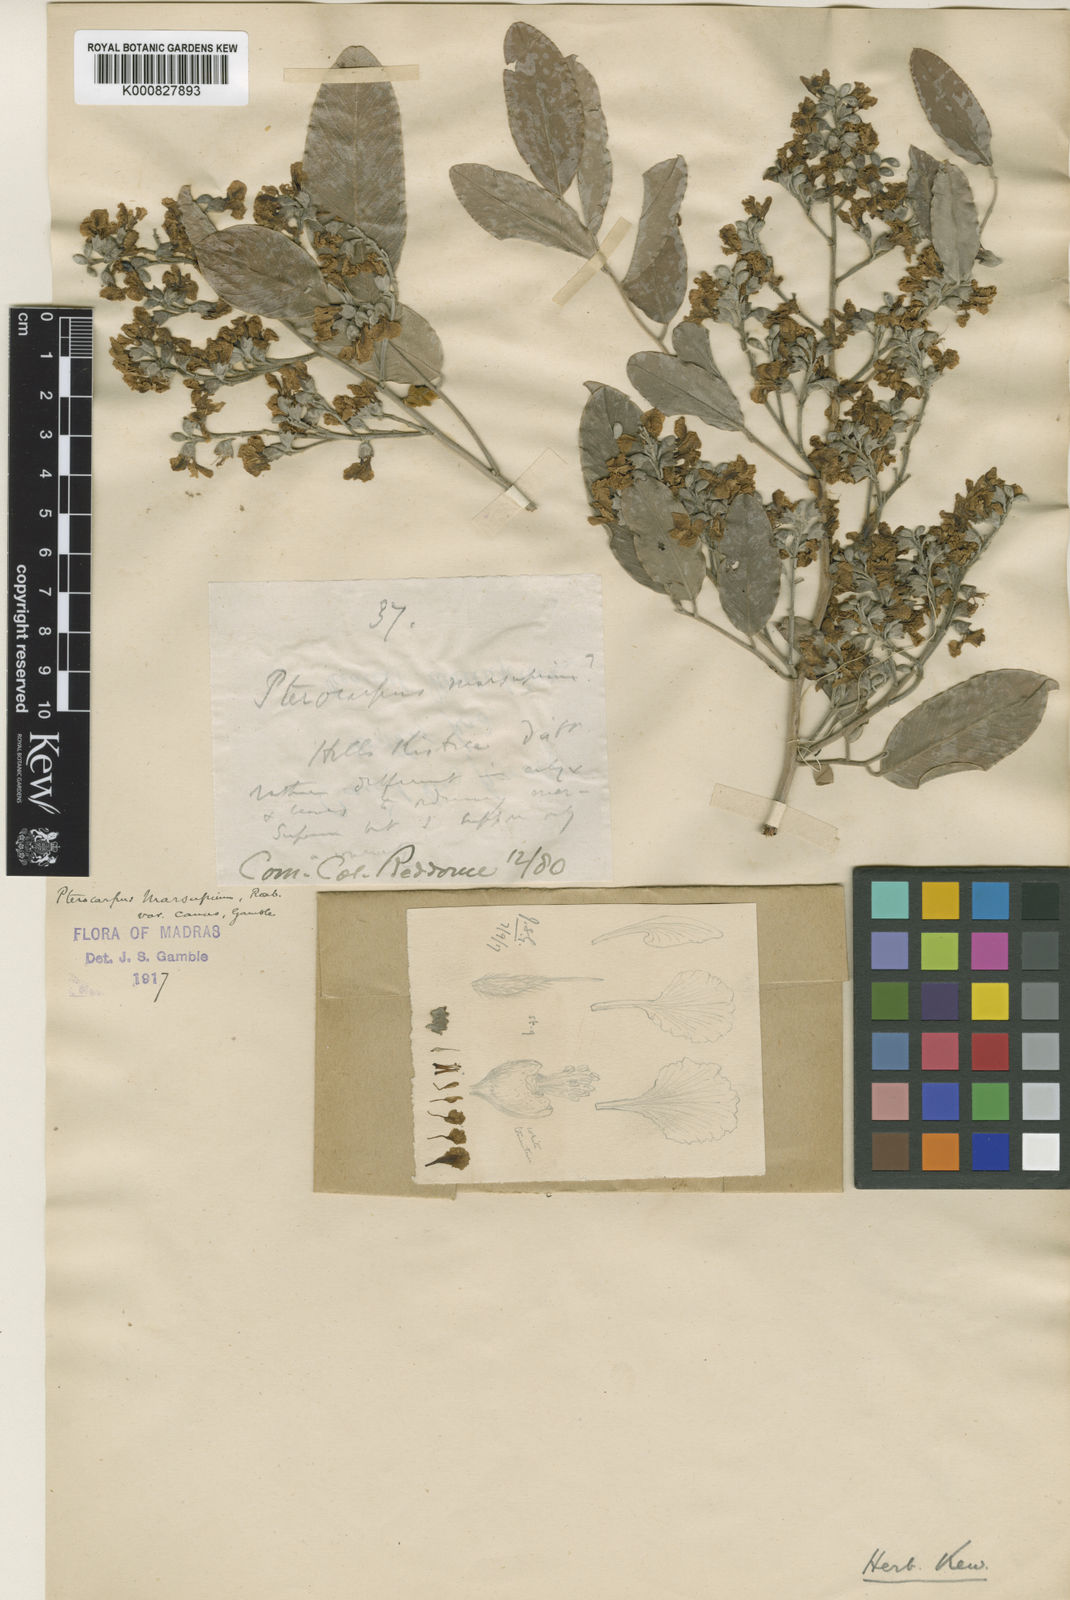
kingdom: Plantae
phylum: Tracheophyta
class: Magnoliopsida
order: Fabales
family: Fabaceae
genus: Pterocarpus
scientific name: Pterocarpus marsupium
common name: East indian/malabar kino
